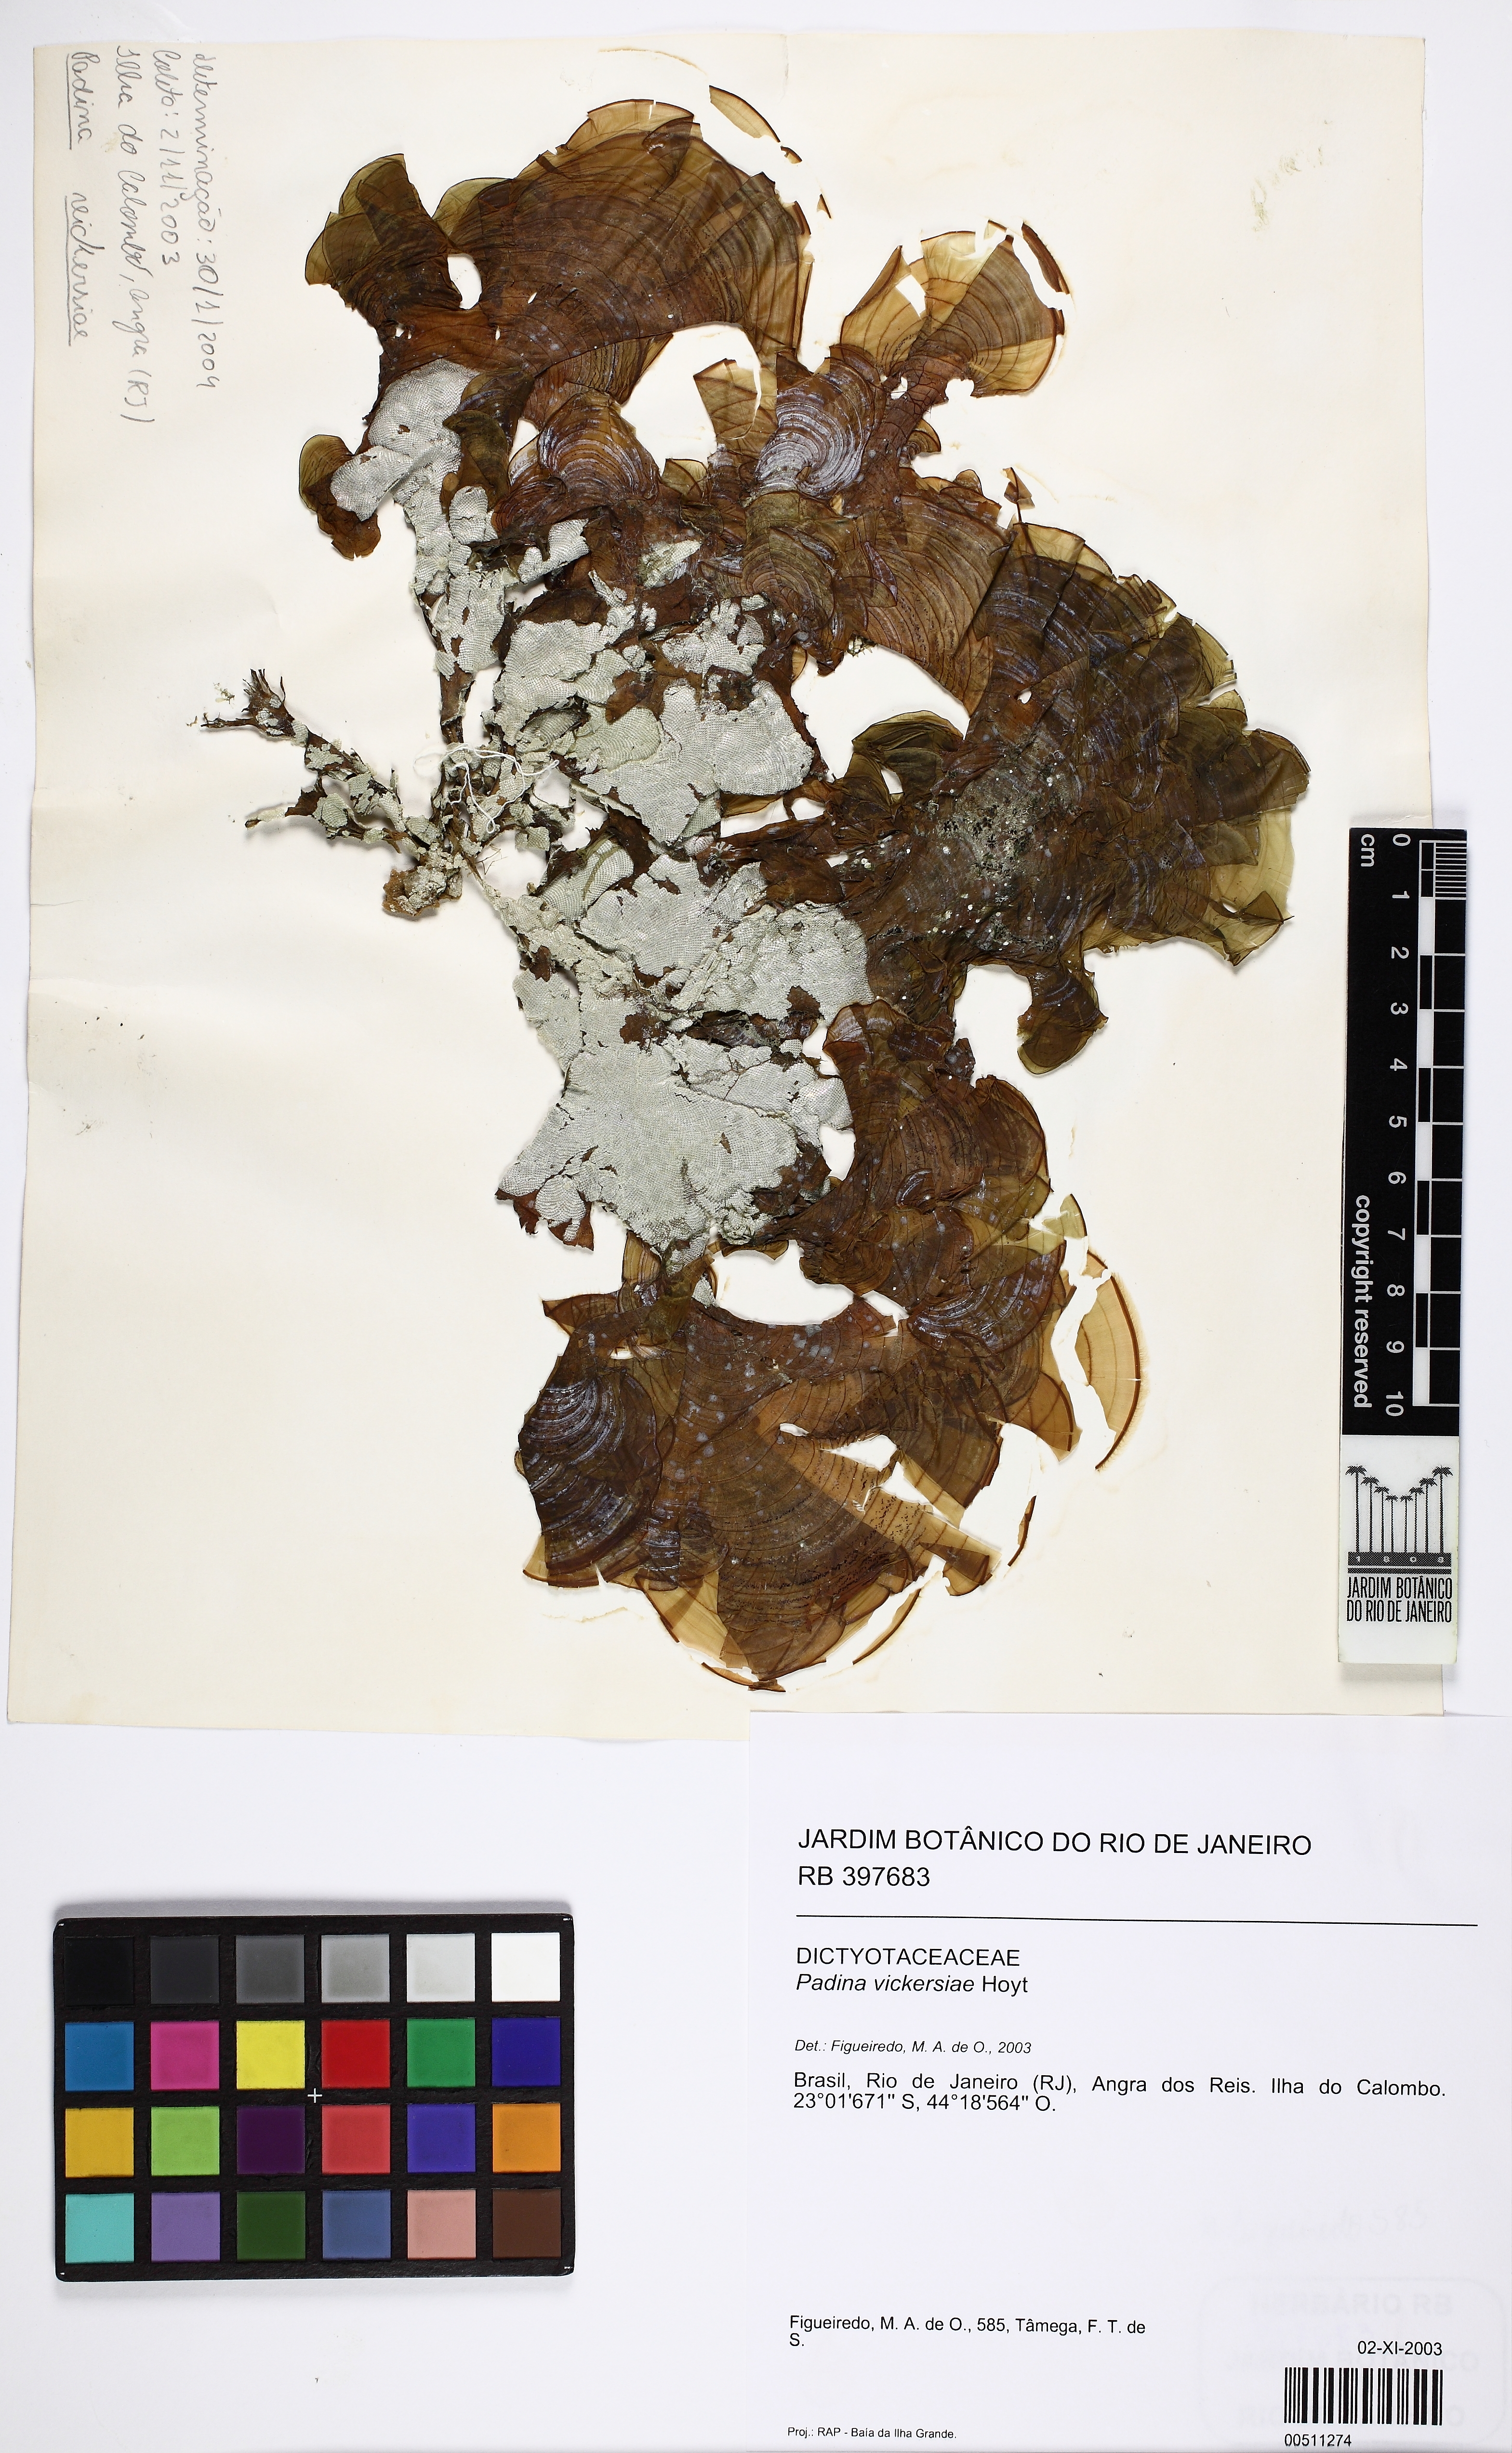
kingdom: Chromista
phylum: Ochrophyta
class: Phaeophyceae
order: Dictyotales
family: Dictyotaceae
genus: Padina
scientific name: Padina gymnospora
